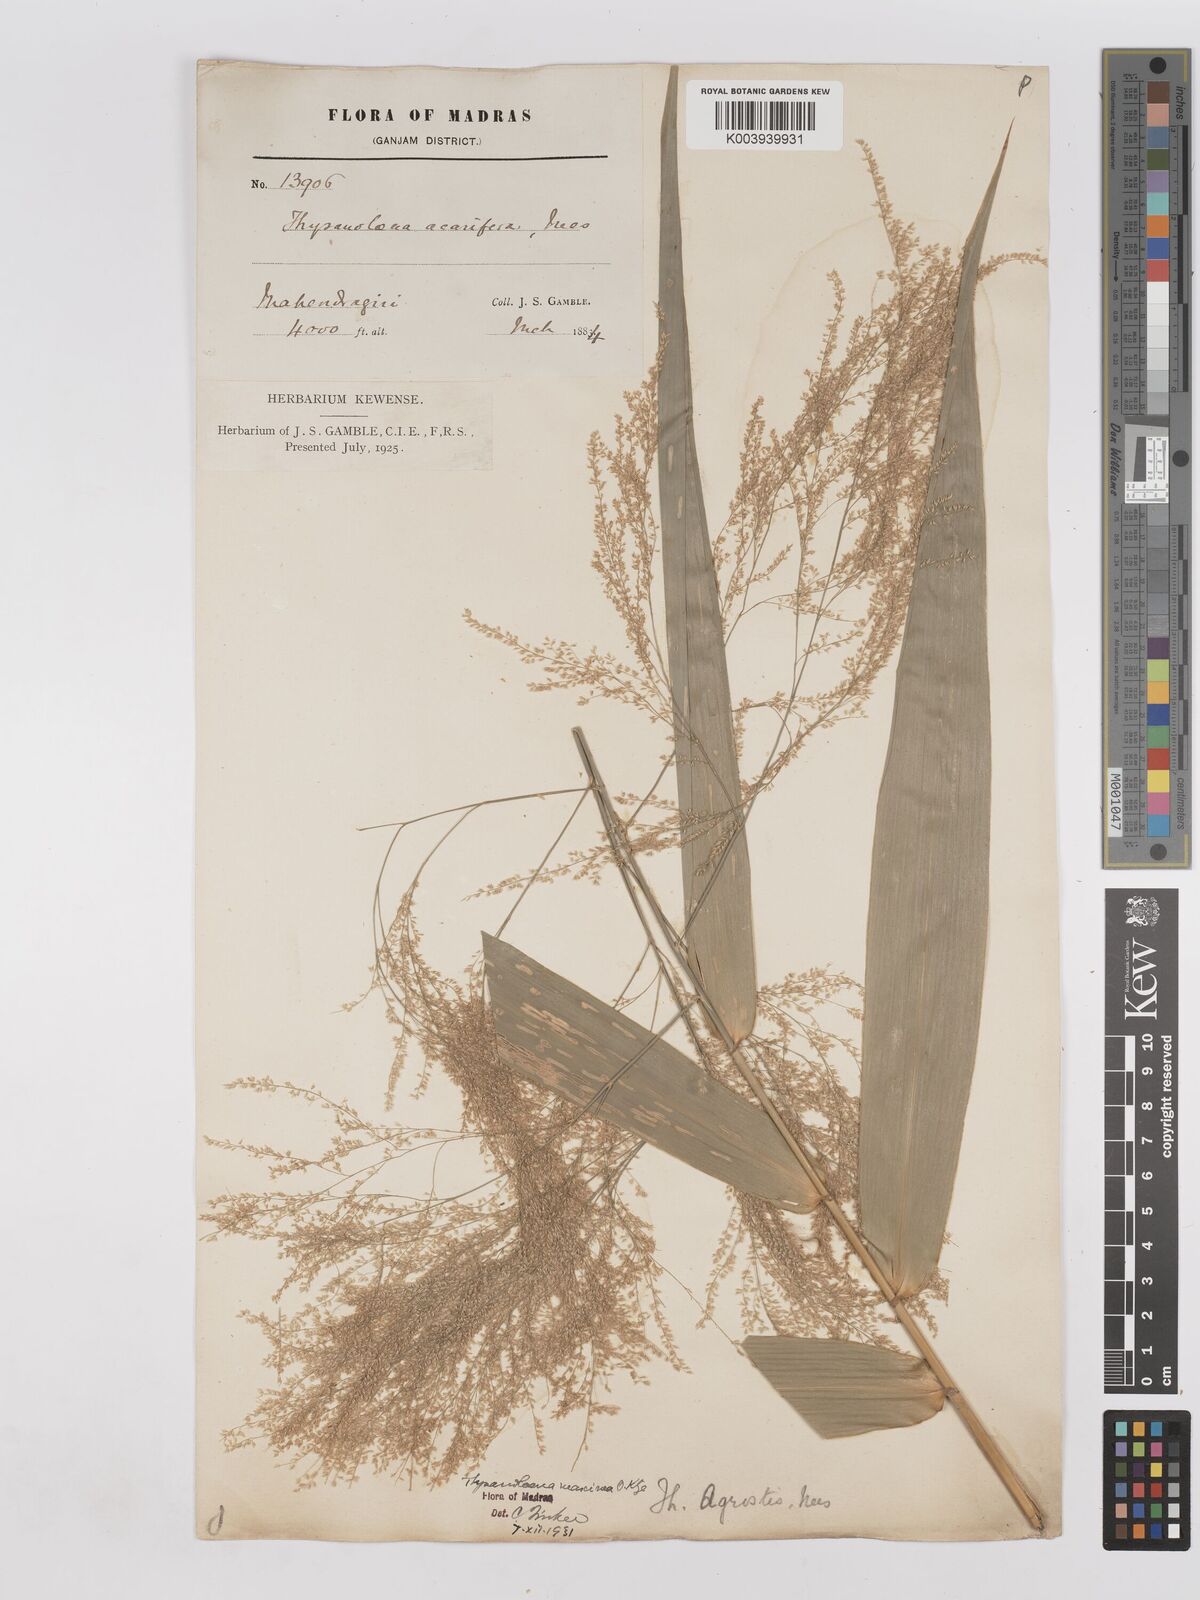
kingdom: Plantae
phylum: Tracheophyta
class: Liliopsida
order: Poales
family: Poaceae
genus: Thysanolaena
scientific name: Thysanolaena latifolia
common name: Tiger grass
